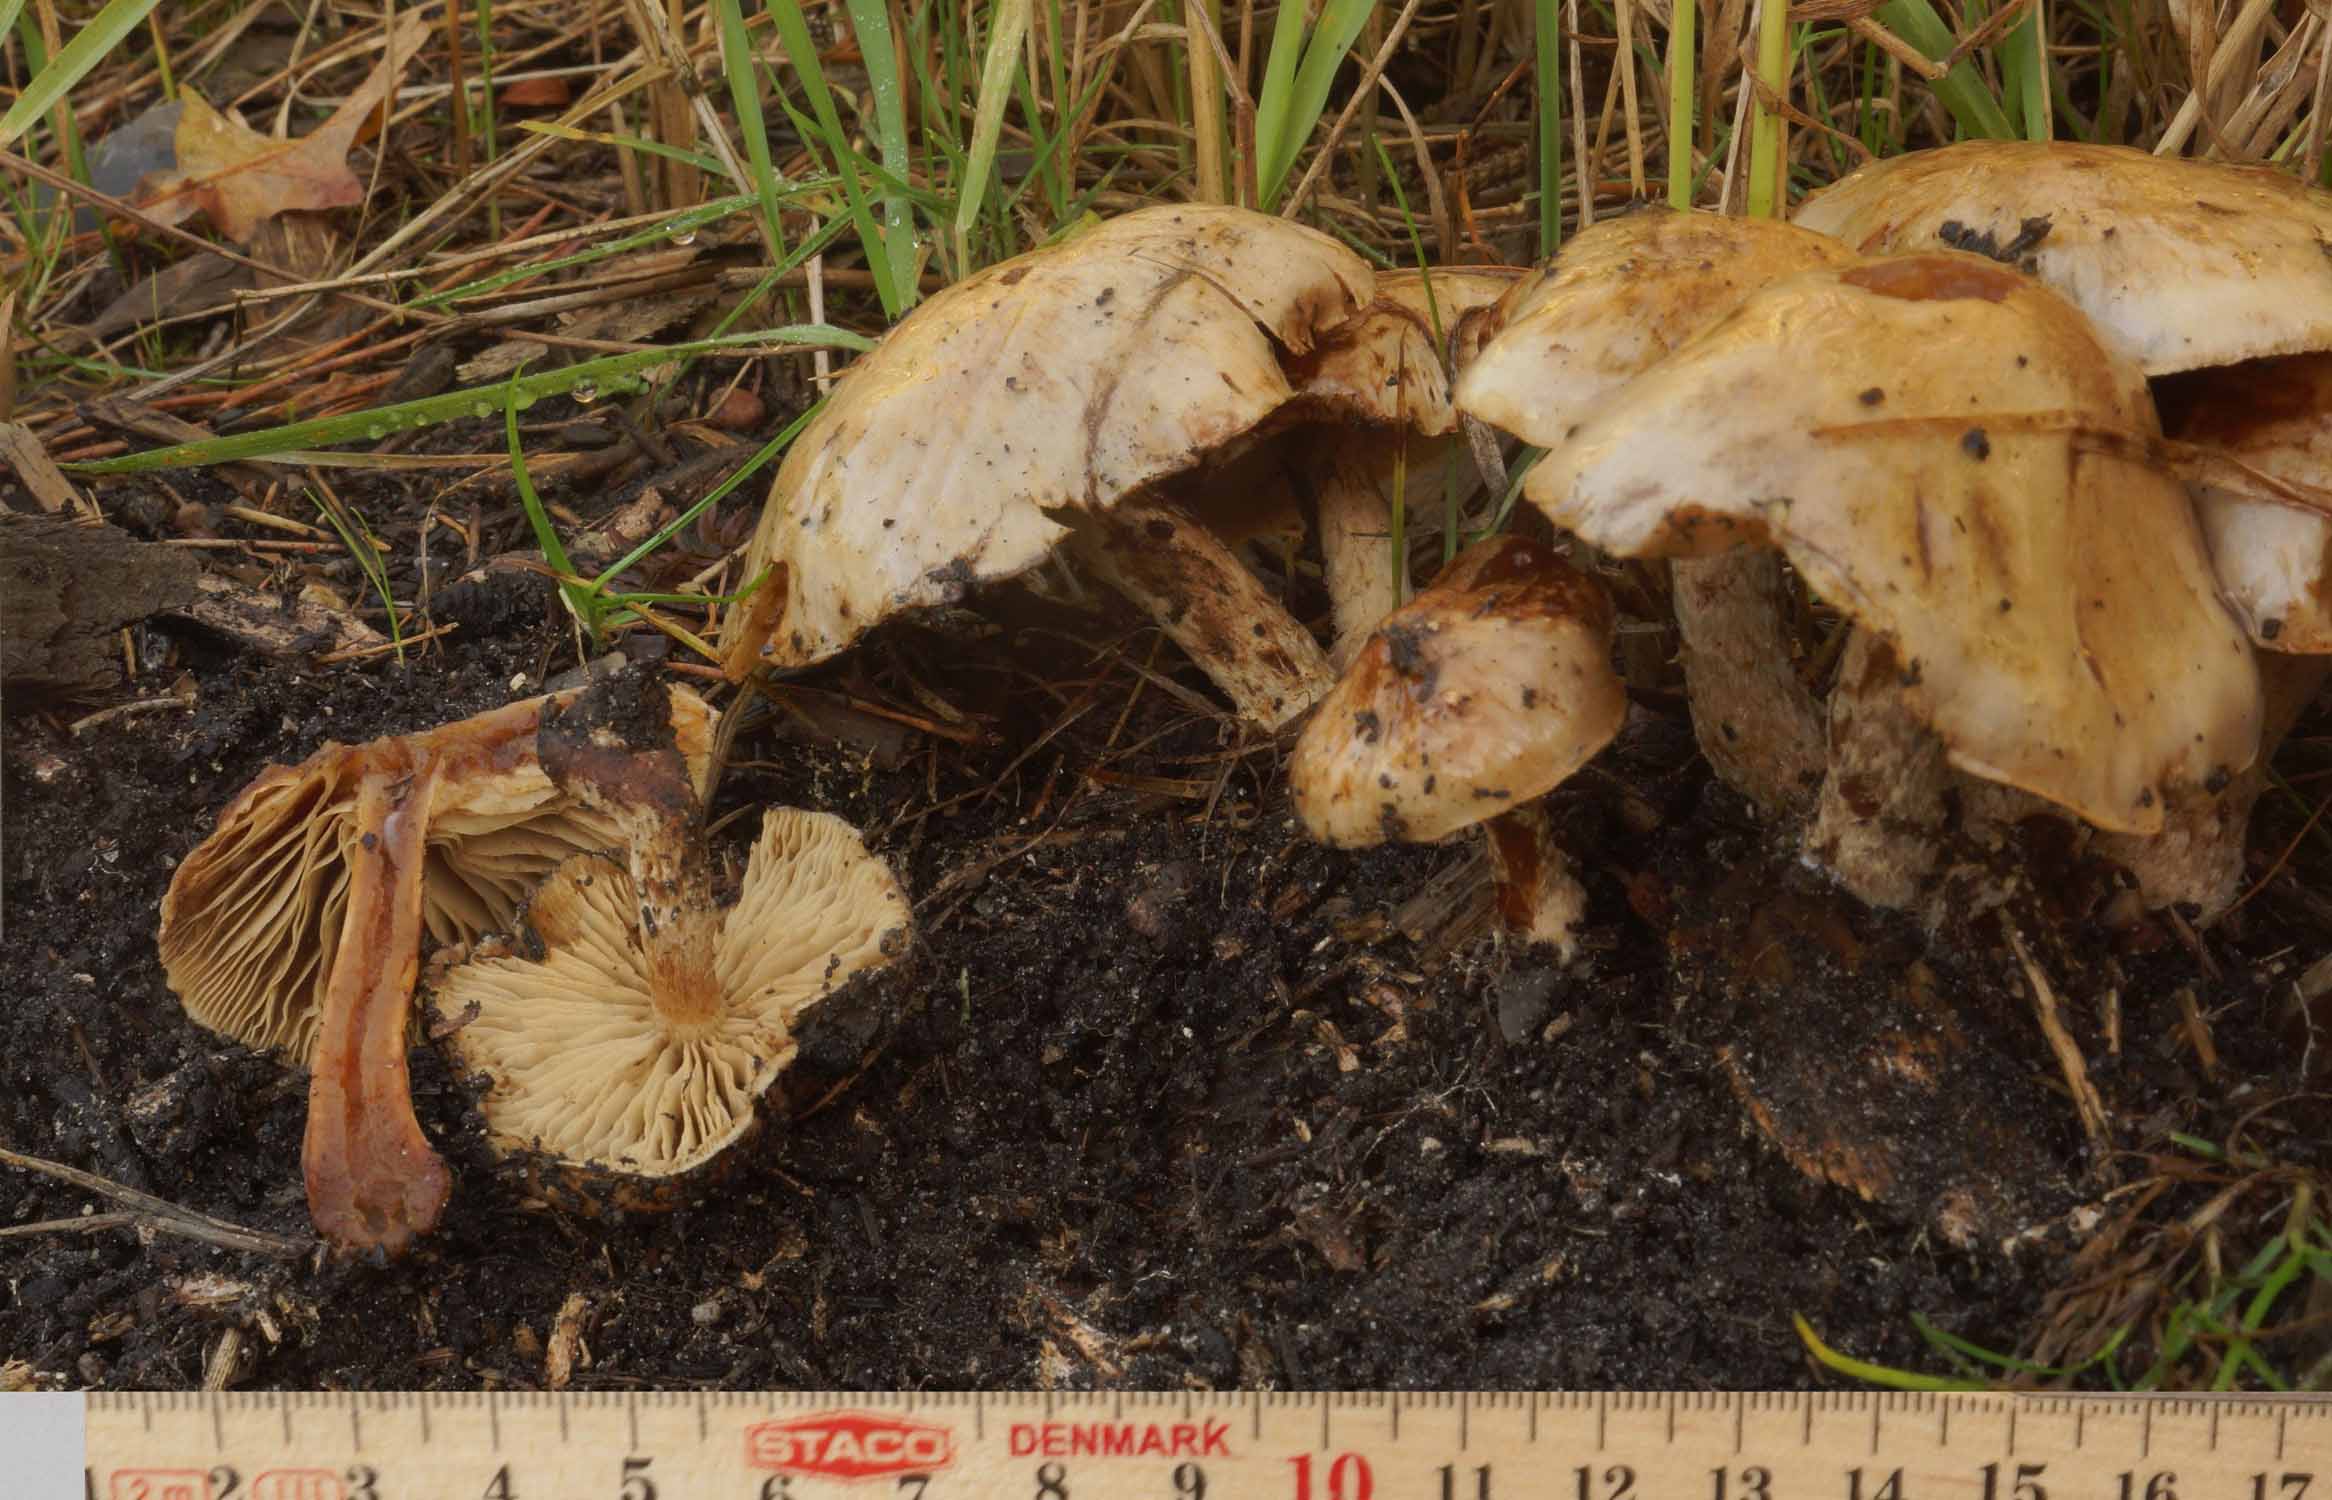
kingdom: Fungi
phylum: Basidiomycota
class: Agaricomycetes
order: Agaricales
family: Strophariaceae
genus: Pholiota
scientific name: Pholiota lenta
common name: løv-skælhat
